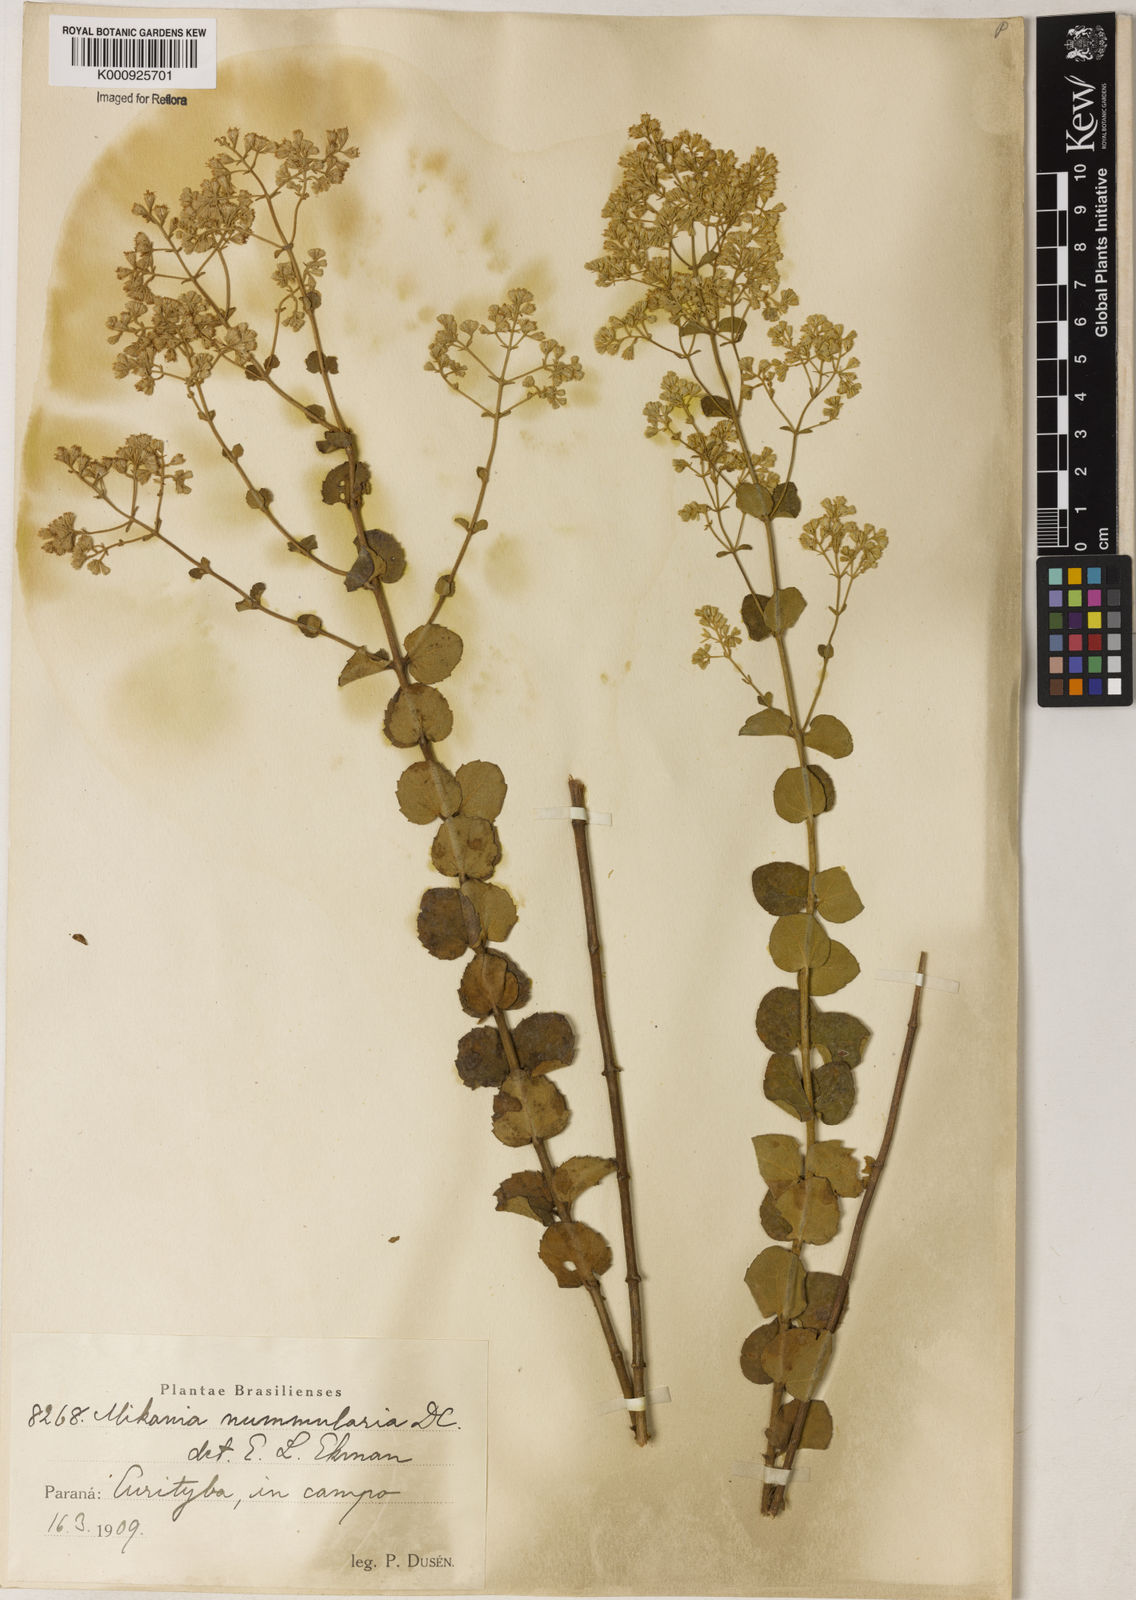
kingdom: Plantae
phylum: Tracheophyta
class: Magnoliopsida
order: Asterales
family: Asteraceae
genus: Mikania
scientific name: Mikania nummularia
